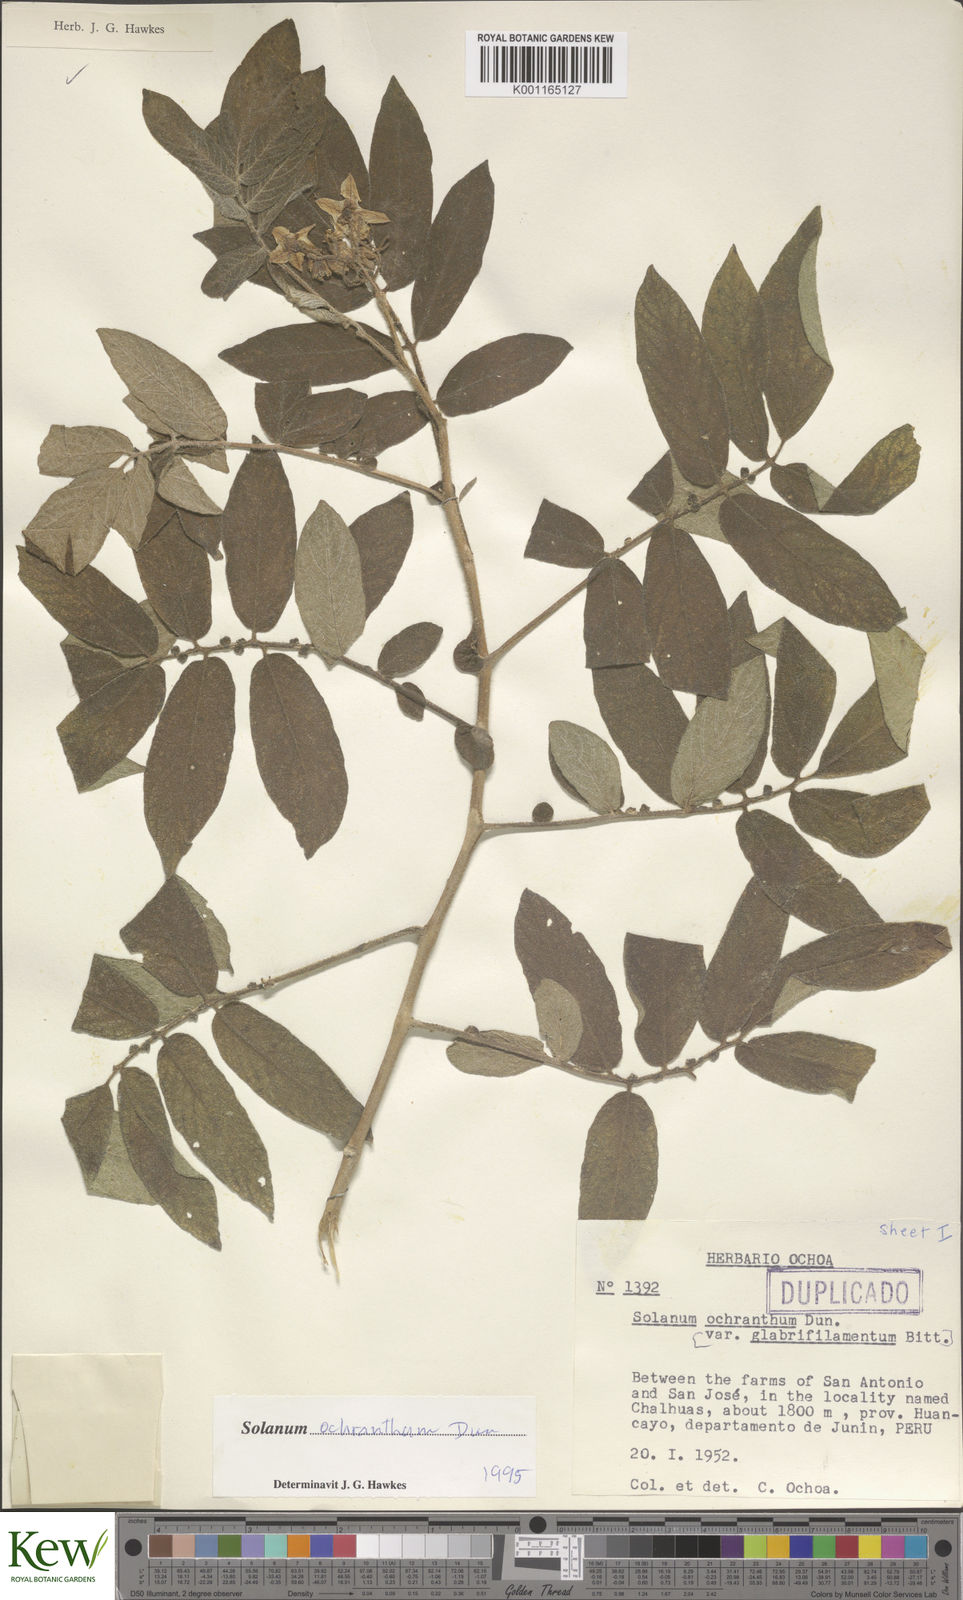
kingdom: Plantae
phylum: Tracheophyta
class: Magnoliopsida
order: Solanales
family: Solanaceae
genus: Solanum
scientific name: Solanum ochranthum
